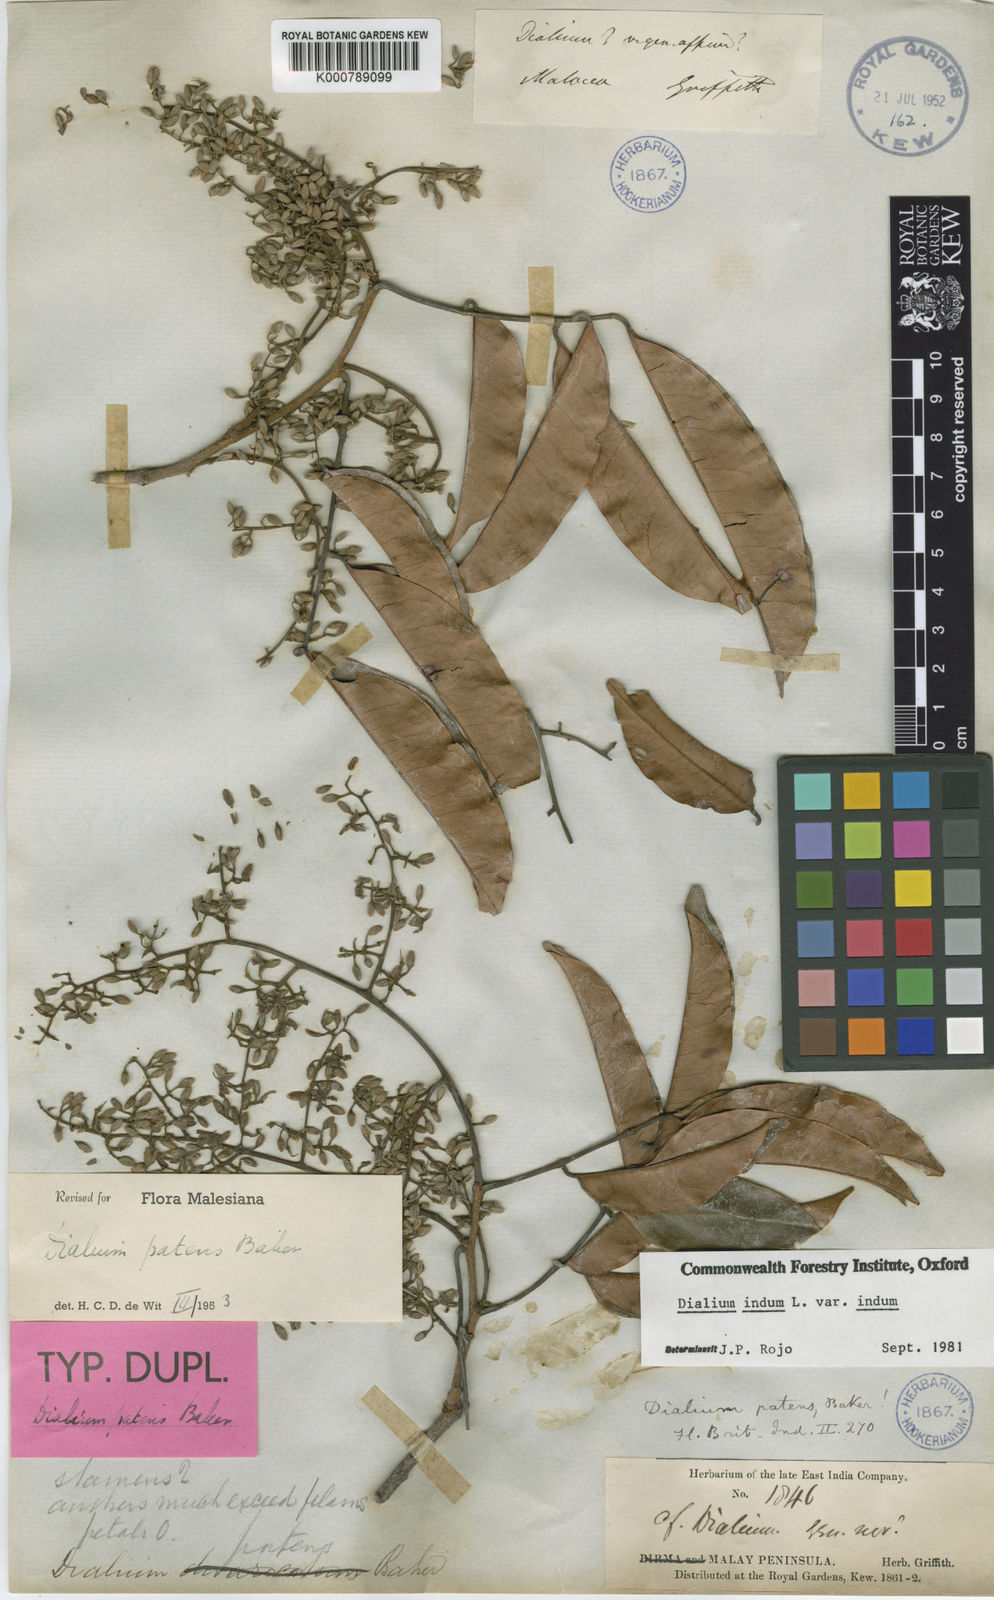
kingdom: Plantae
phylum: Tracheophyta
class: Magnoliopsida
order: Fabales
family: Fabaceae
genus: Dialium
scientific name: Dialium kunstleri
